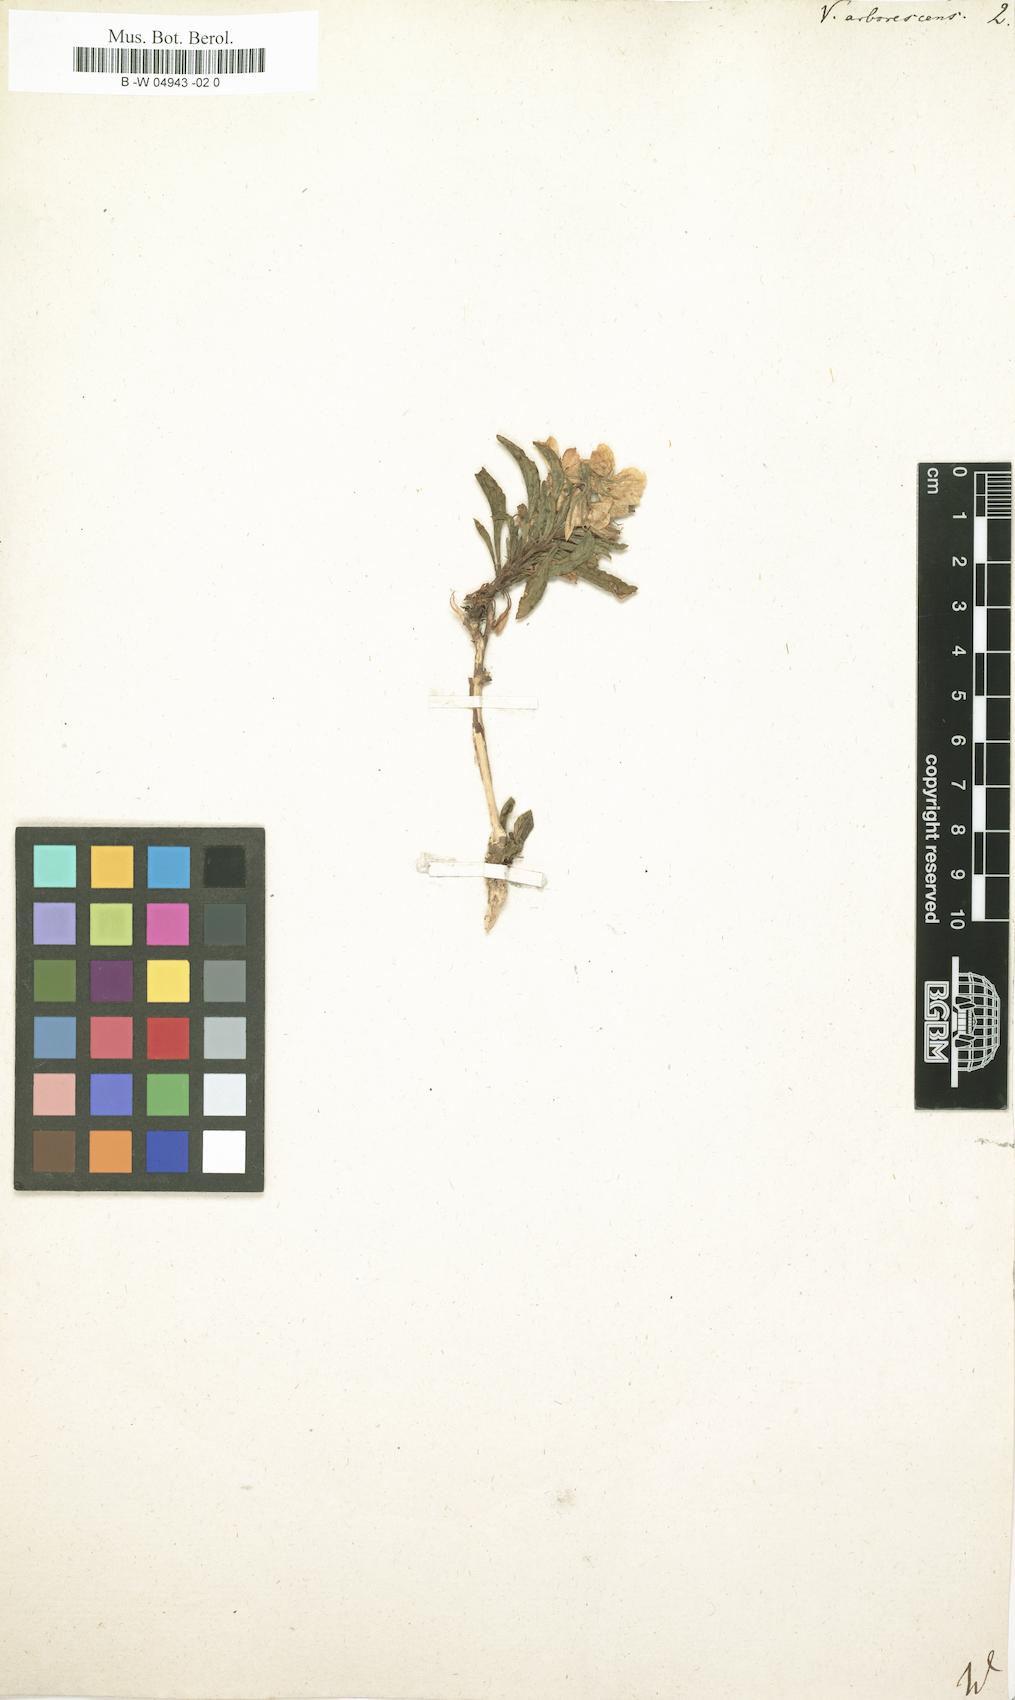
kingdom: Plantae
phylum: Tracheophyta
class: Magnoliopsida
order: Malpighiales
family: Violaceae
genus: Viola
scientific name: Viola arborescens
